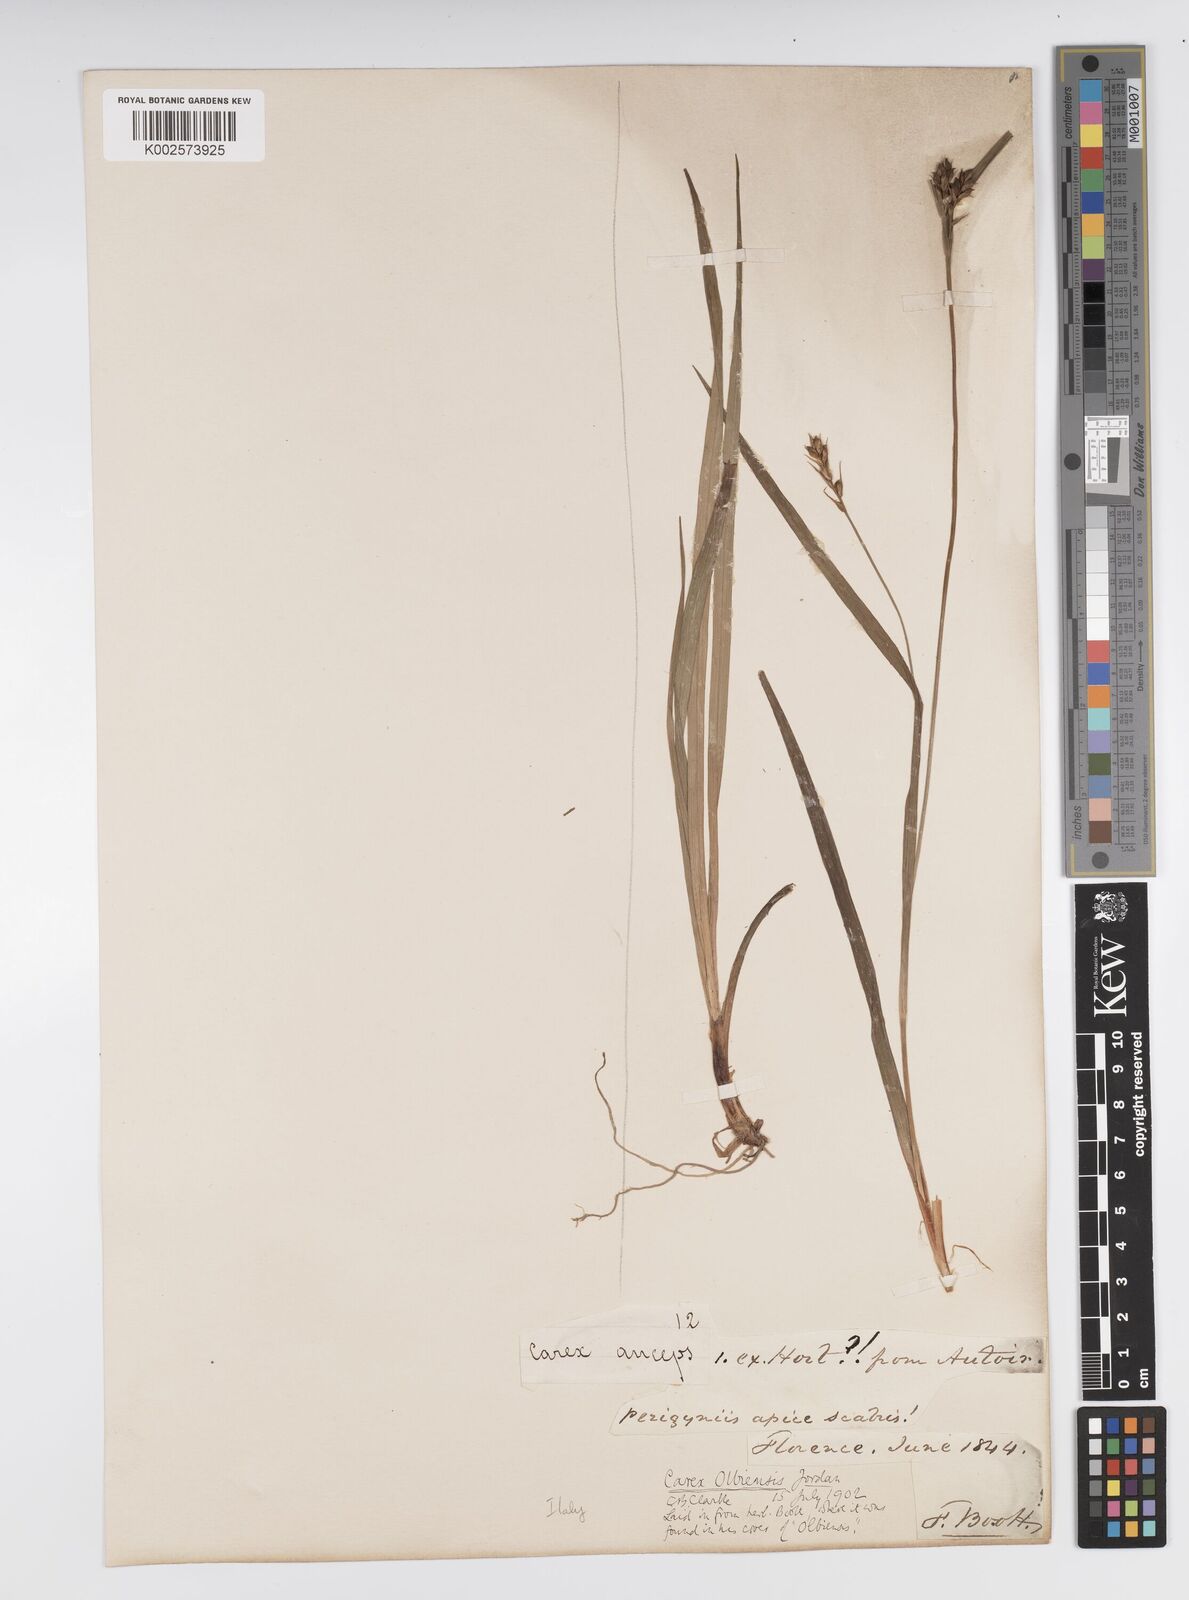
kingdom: Plantae
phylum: Tracheophyta
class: Liliopsida
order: Poales
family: Cyperaceae
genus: Carex
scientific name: Carex olbiensis
